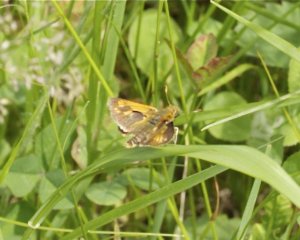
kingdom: Animalia
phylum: Arthropoda
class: Insecta
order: Lepidoptera
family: Hesperiidae
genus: Polites
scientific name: Polites coras
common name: Peck's Skipper
